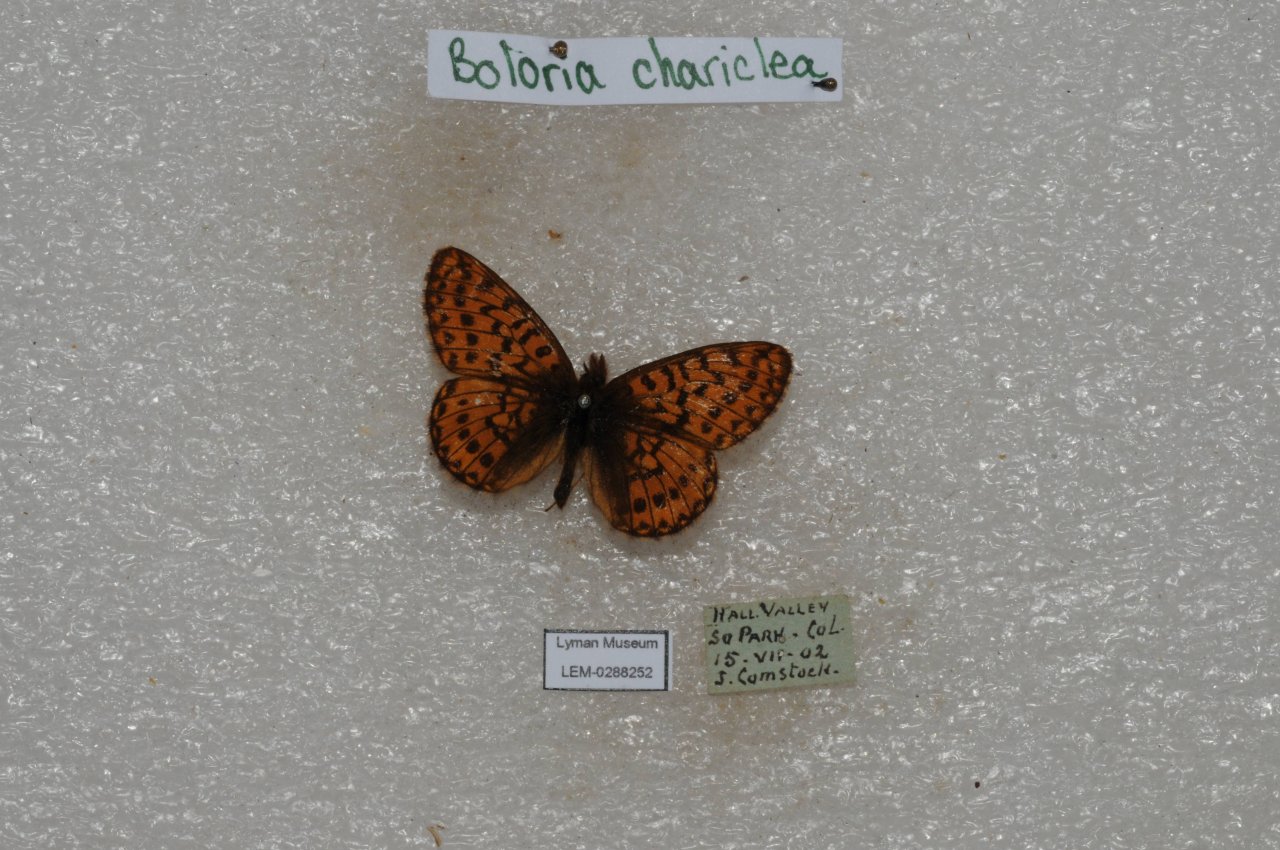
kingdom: Animalia
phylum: Arthropoda
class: Insecta
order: Lepidoptera
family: Nymphalidae
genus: Boloria
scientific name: Boloria chariclea
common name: Arctic Fritillary
